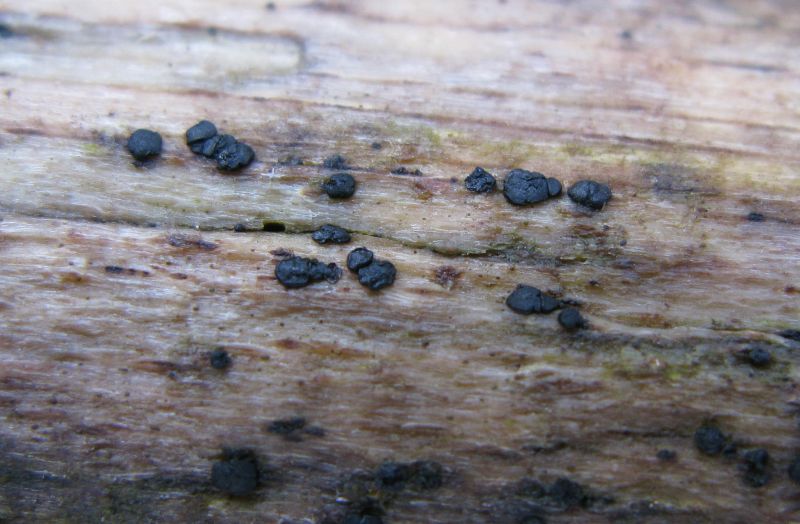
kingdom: Fungi
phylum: Ascomycota
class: Leotiomycetes
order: Leotiales
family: Tympanidaceae
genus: Vexillomyces
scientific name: Vexillomyces xylophilus
